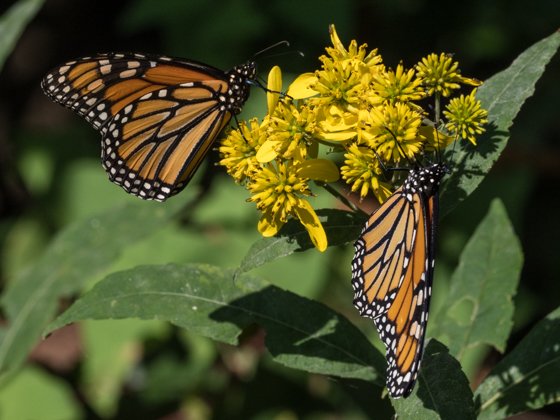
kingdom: Animalia
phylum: Arthropoda
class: Insecta
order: Lepidoptera
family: Nymphalidae
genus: Danaus
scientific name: Danaus plexippus
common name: Monarch
